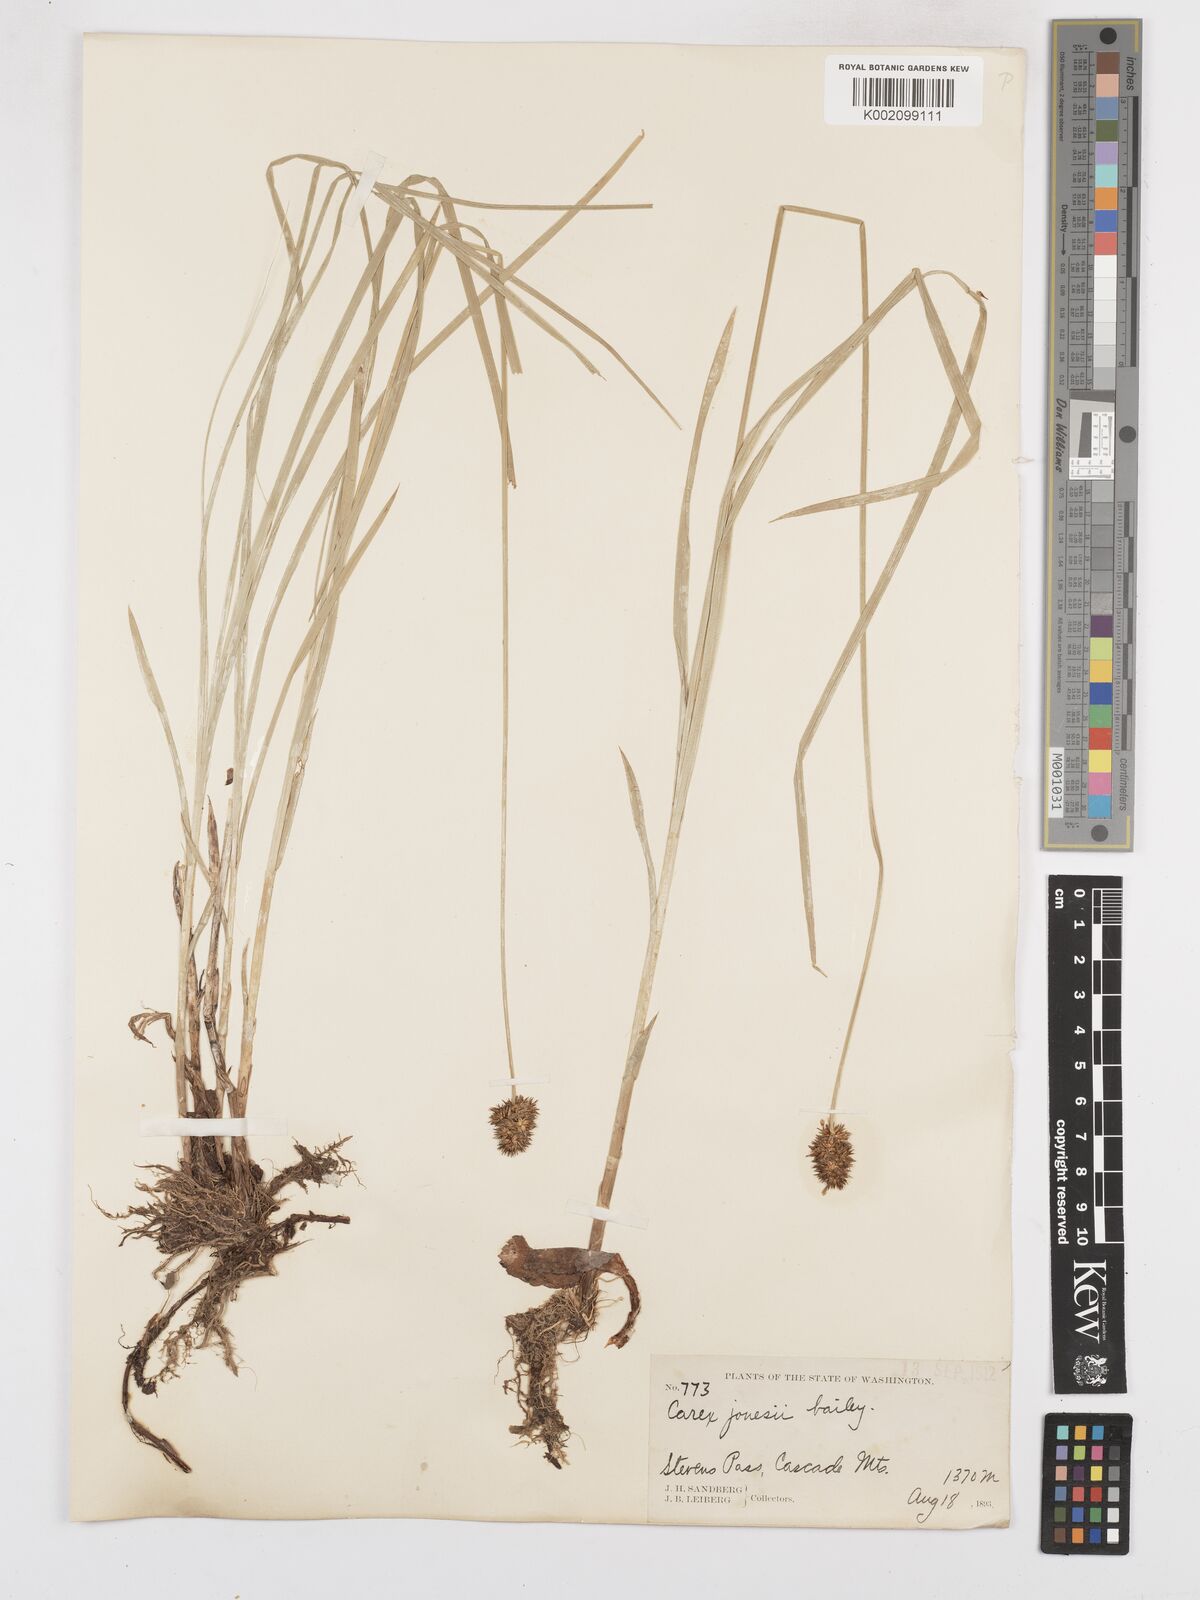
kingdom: Plantae
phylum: Tracheophyta
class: Liliopsida
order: Poales
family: Cyperaceae
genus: Carex
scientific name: Carex jonesii
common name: Jones' sedge
